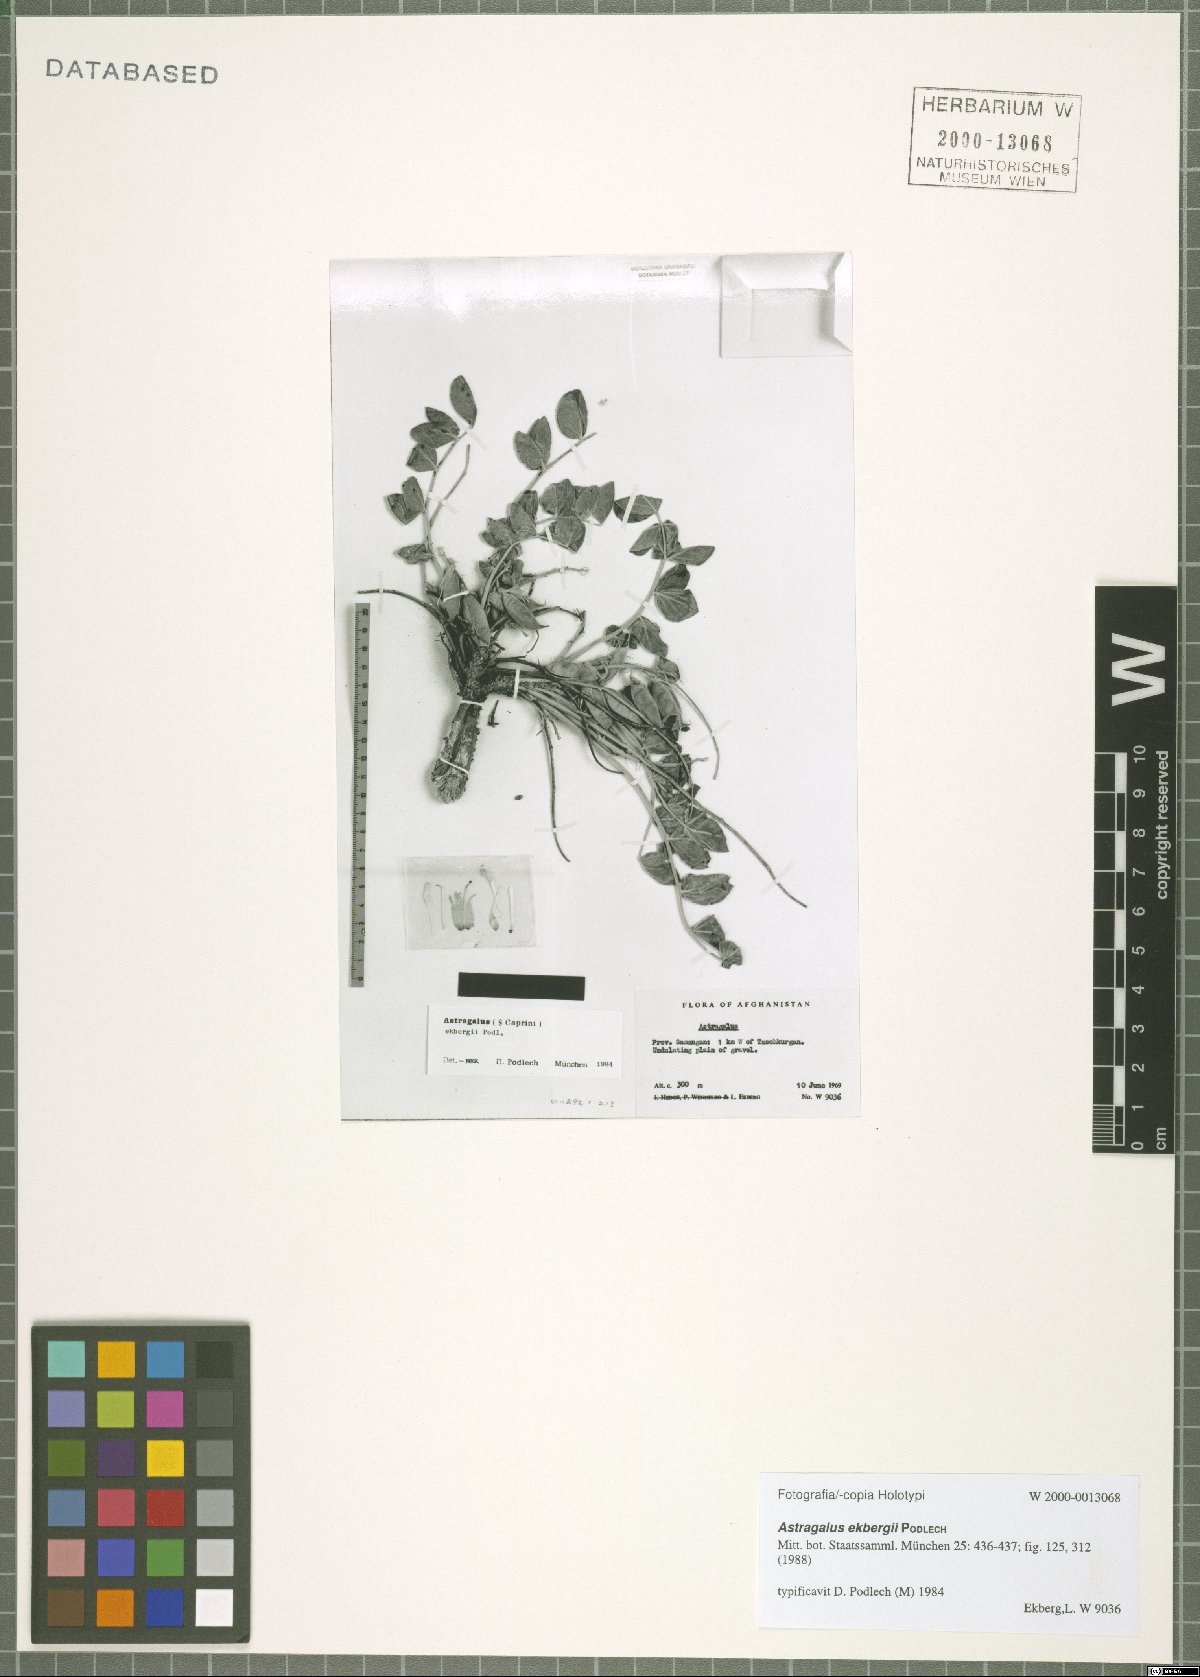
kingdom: Plantae
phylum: Tracheophyta
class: Magnoliopsida
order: Fabales
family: Fabaceae
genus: Astragalus
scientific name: Astragalus ekbergii
